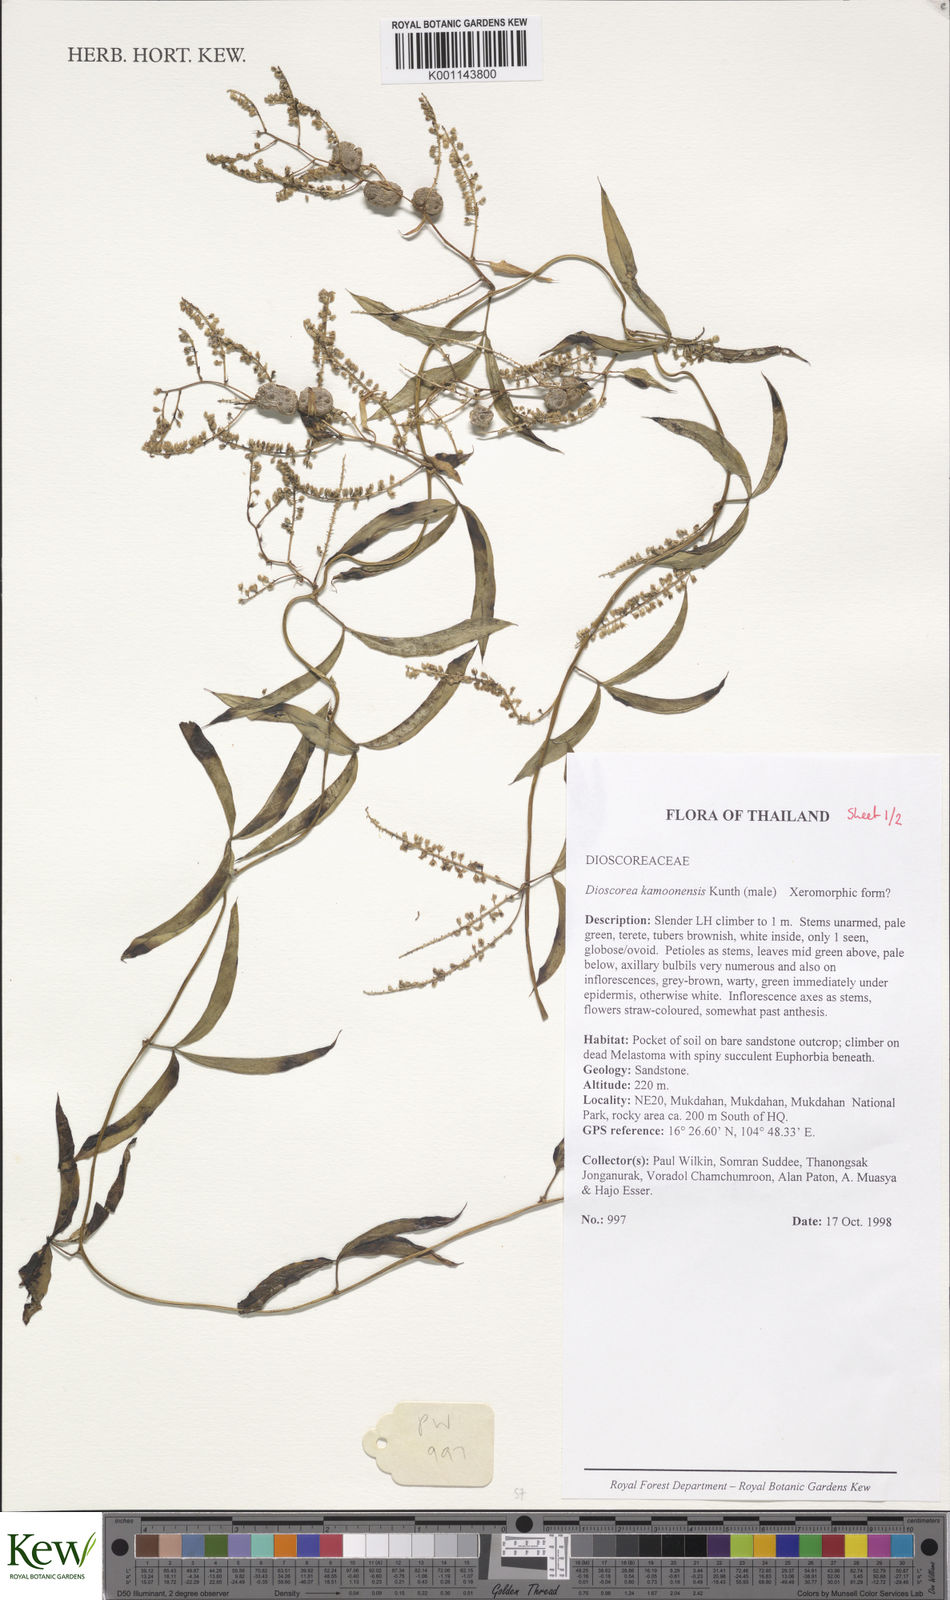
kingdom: Plantae
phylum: Tracheophyta
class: Liliopsida
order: Dioscoreales
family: Dioscoreaceae
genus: Dioscorea
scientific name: Dioscorea kamoonensis
